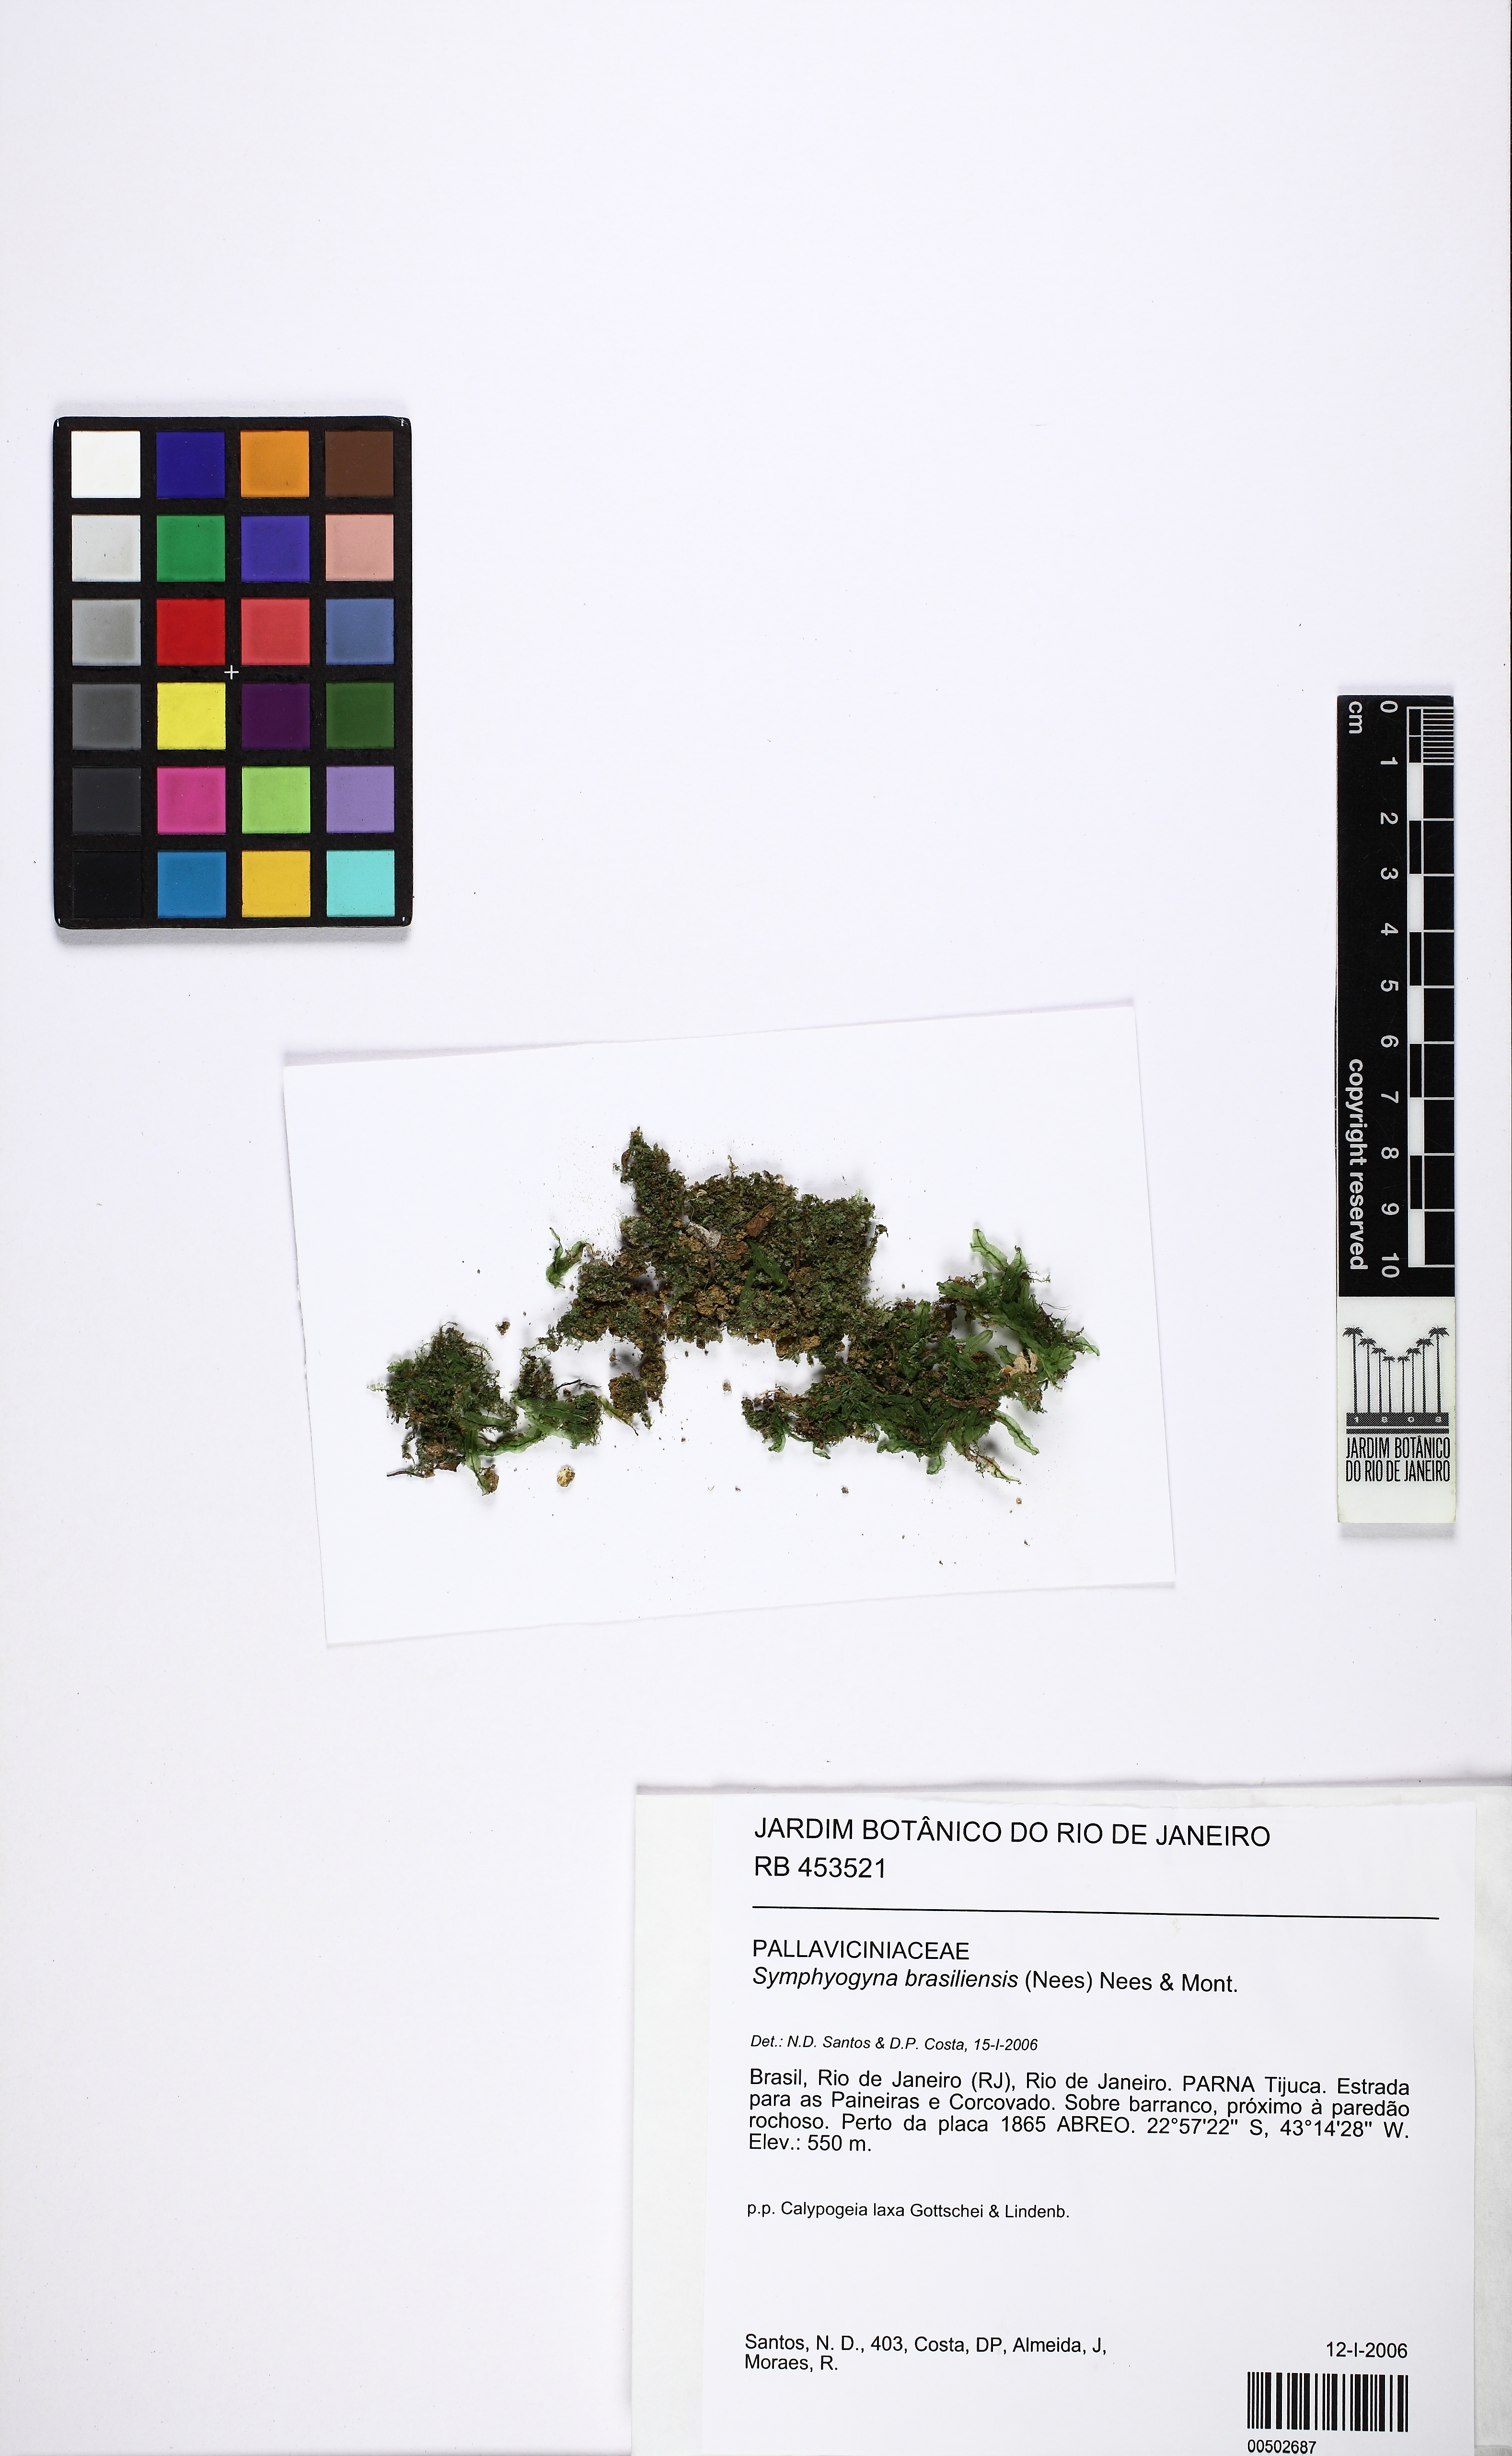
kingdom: Plantae
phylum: Marchantiophyta
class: Jungermanniopsida
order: Pallaviciniales
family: Pallaviciniaceae
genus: Symphyogyna
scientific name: Symphyogyna brasiliensis
